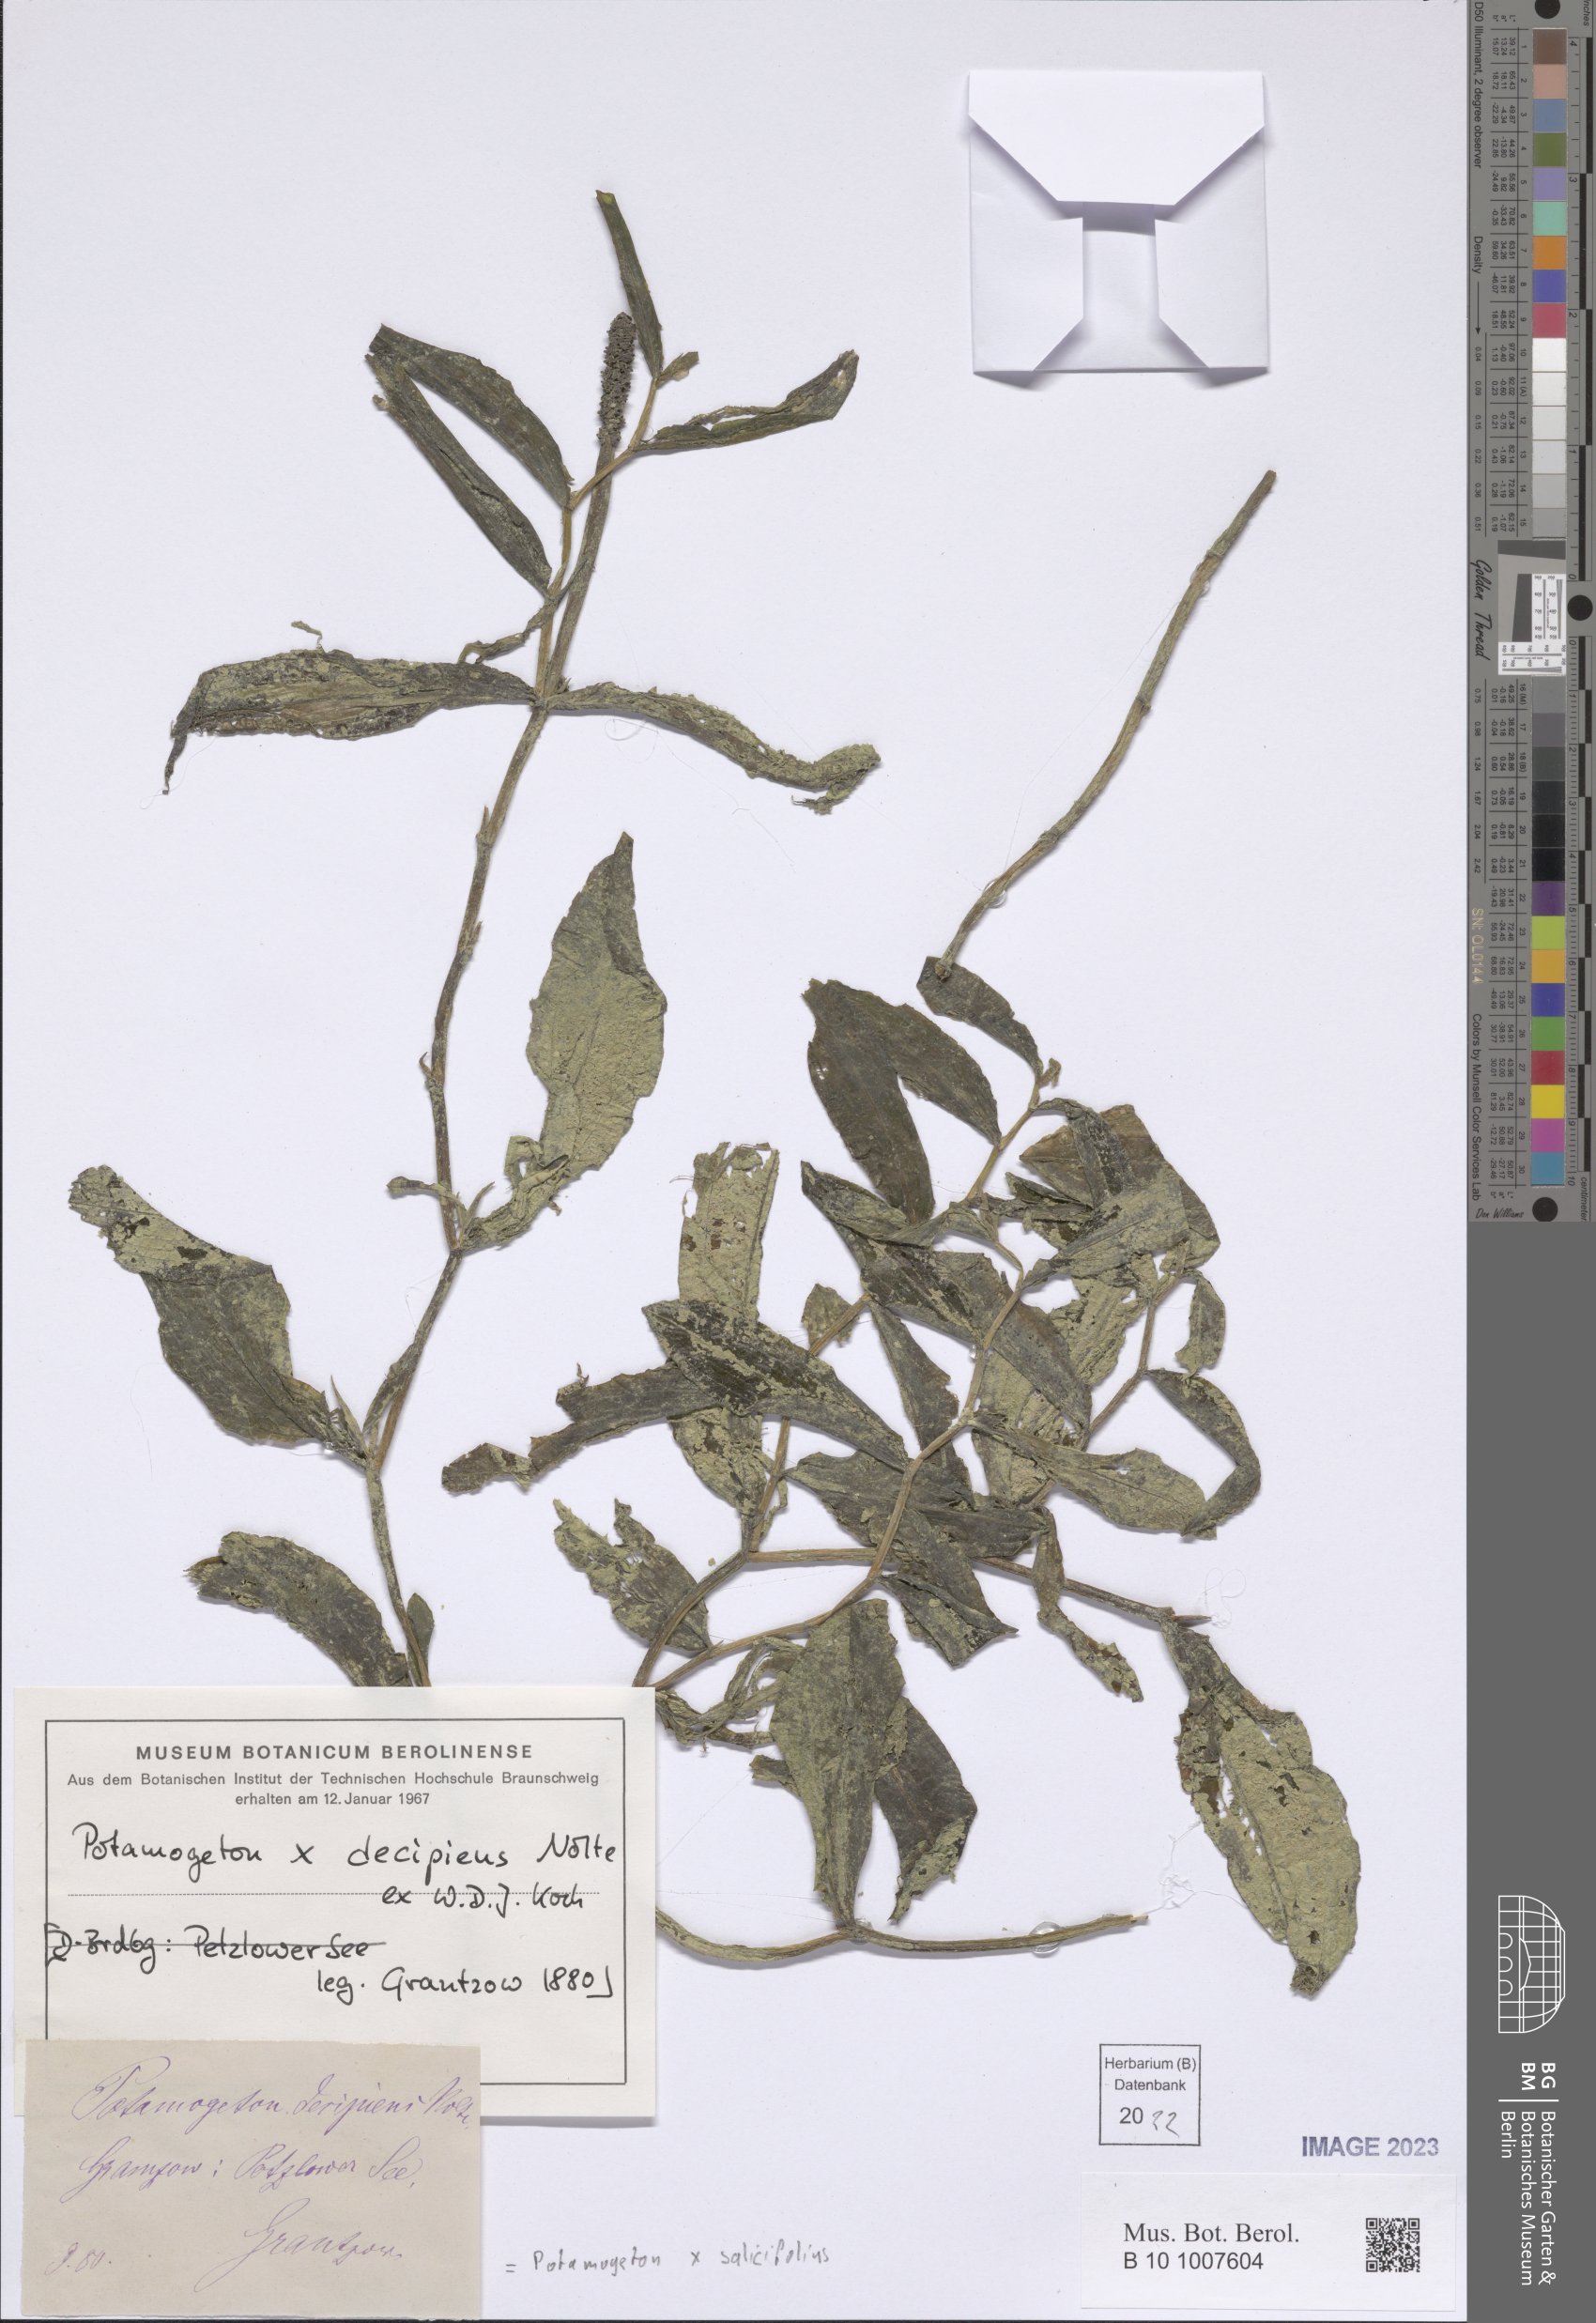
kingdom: Plantae
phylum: Tracheophyta
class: Liliopsida
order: Alismatales
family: Potamogetonaceae
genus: Potamogeton
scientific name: Potamogeton salicifolius
